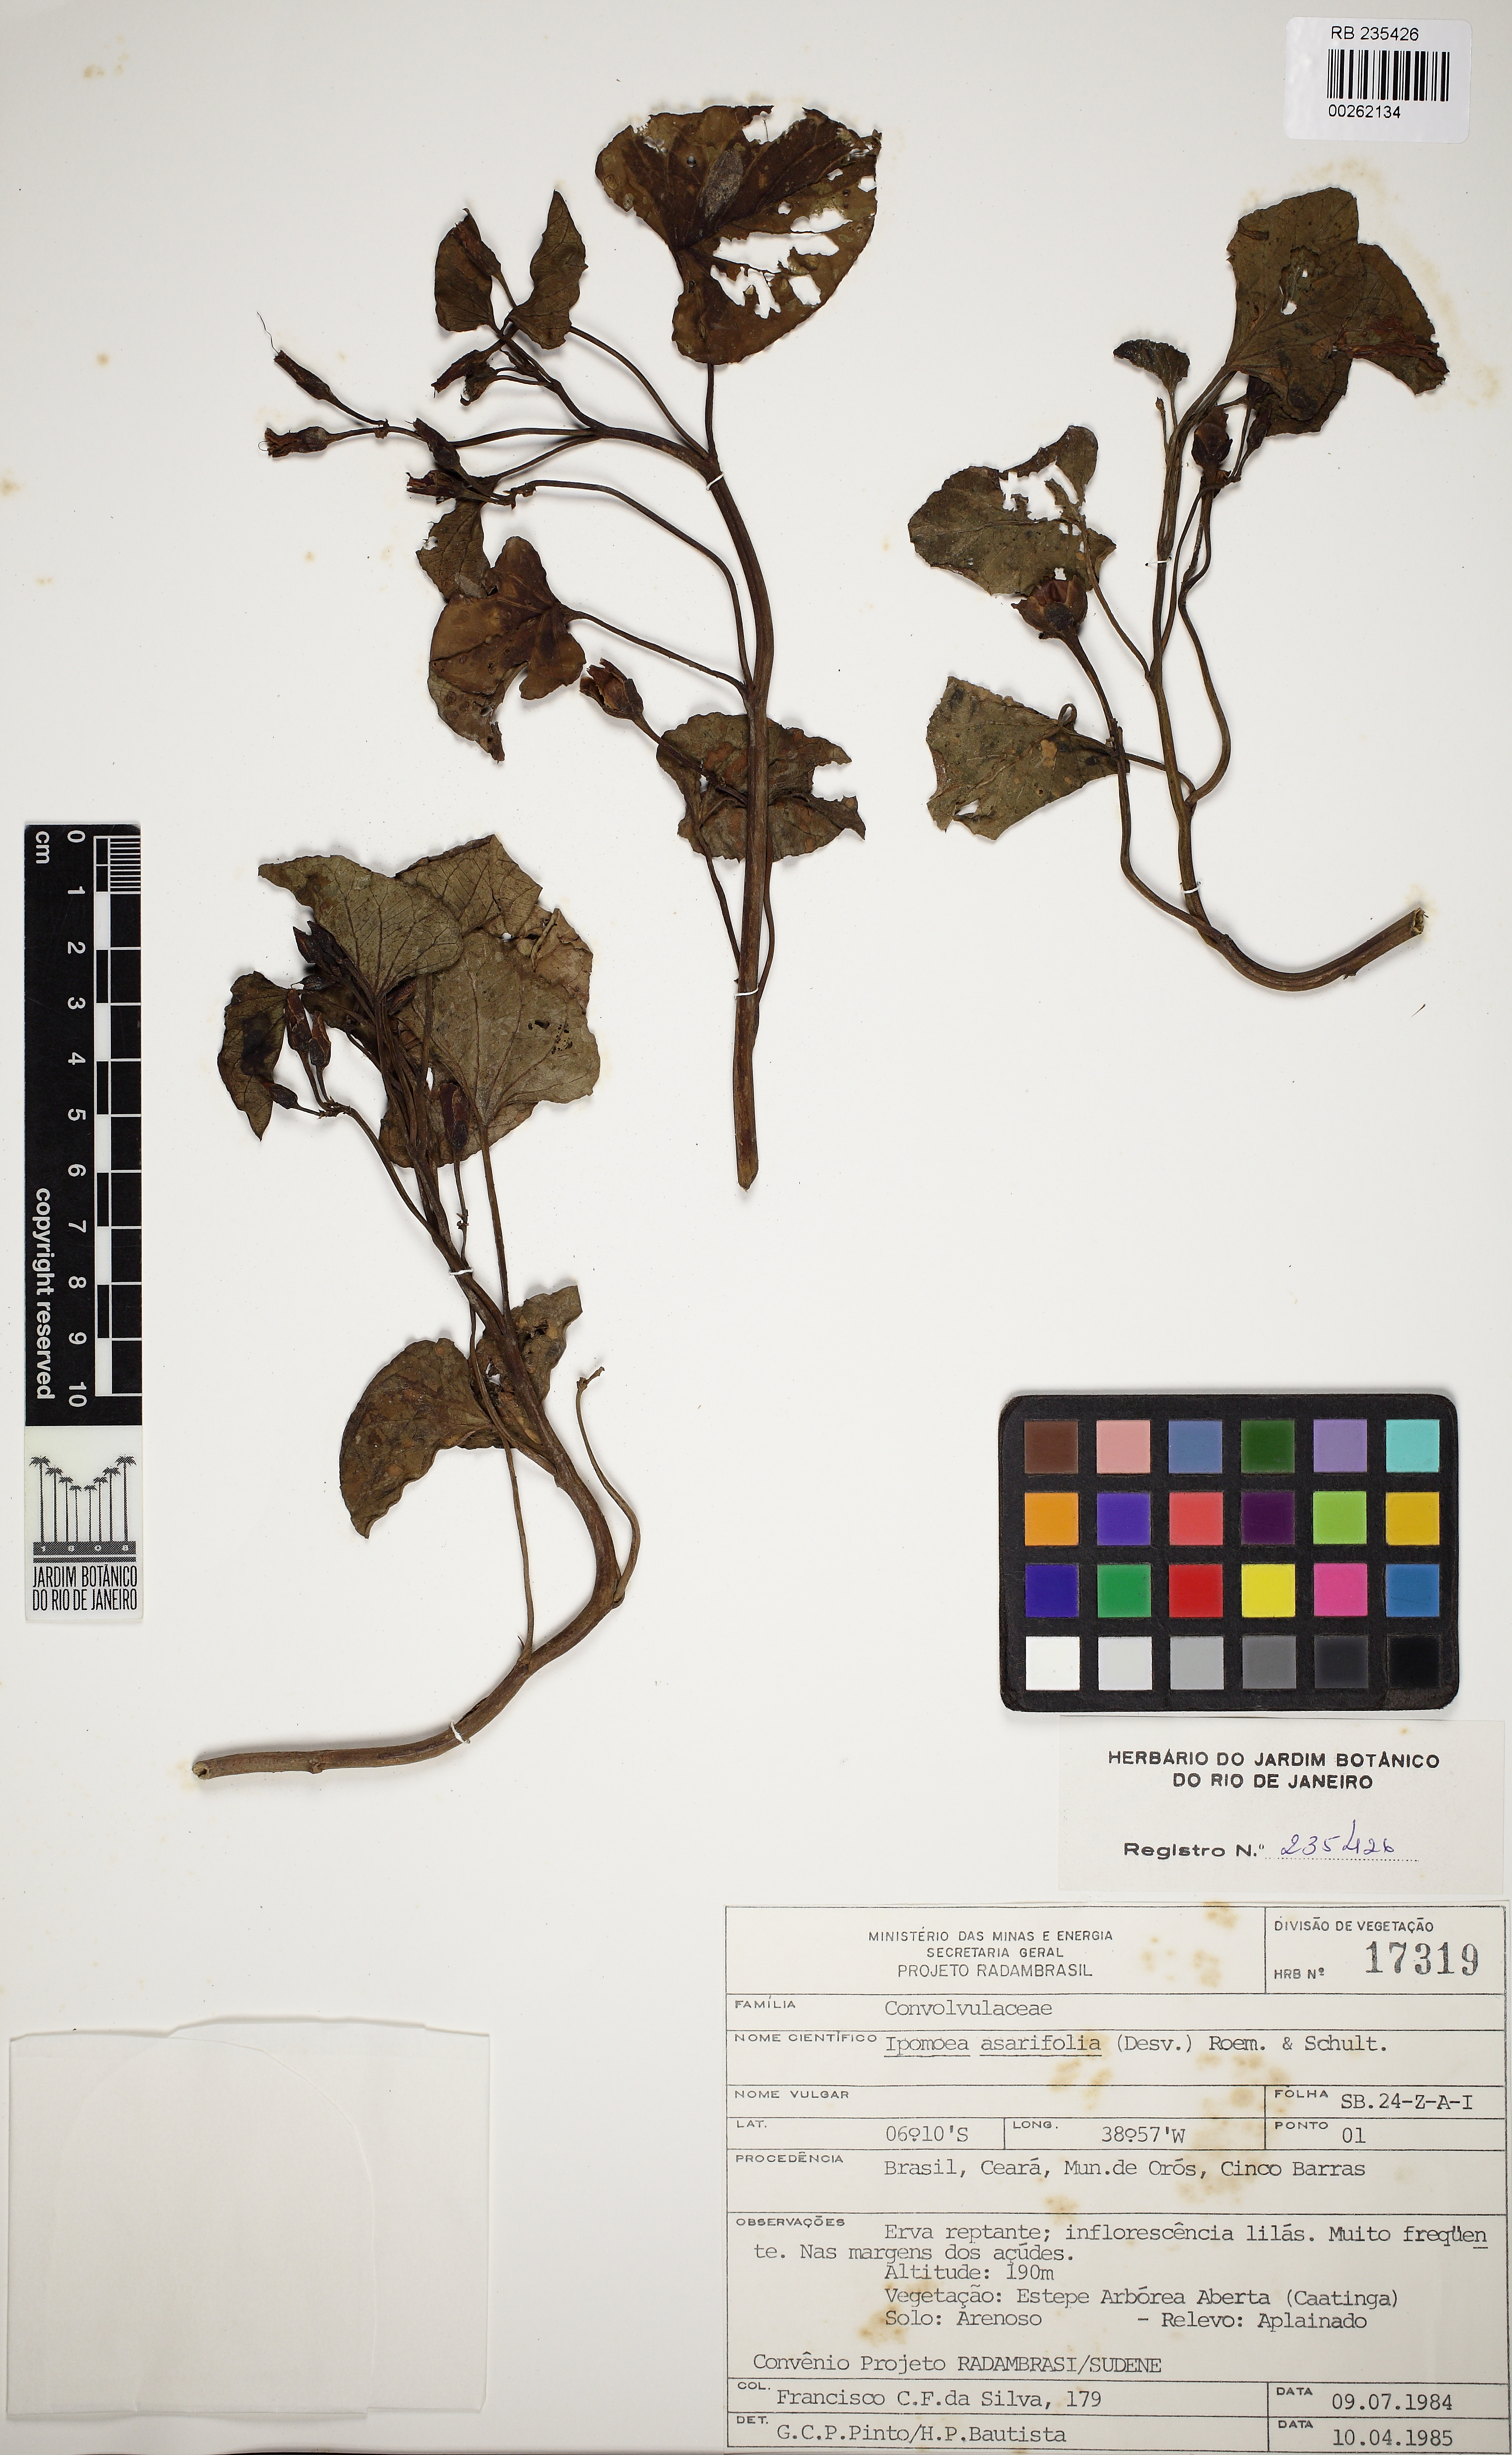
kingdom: Plantae
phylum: Tracheophyta
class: Magnoliopsida
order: Solanales
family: Convolvulaceae
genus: Ipomoea
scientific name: Ipomoea asarifolia
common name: Ginger-leaf morning-glory
